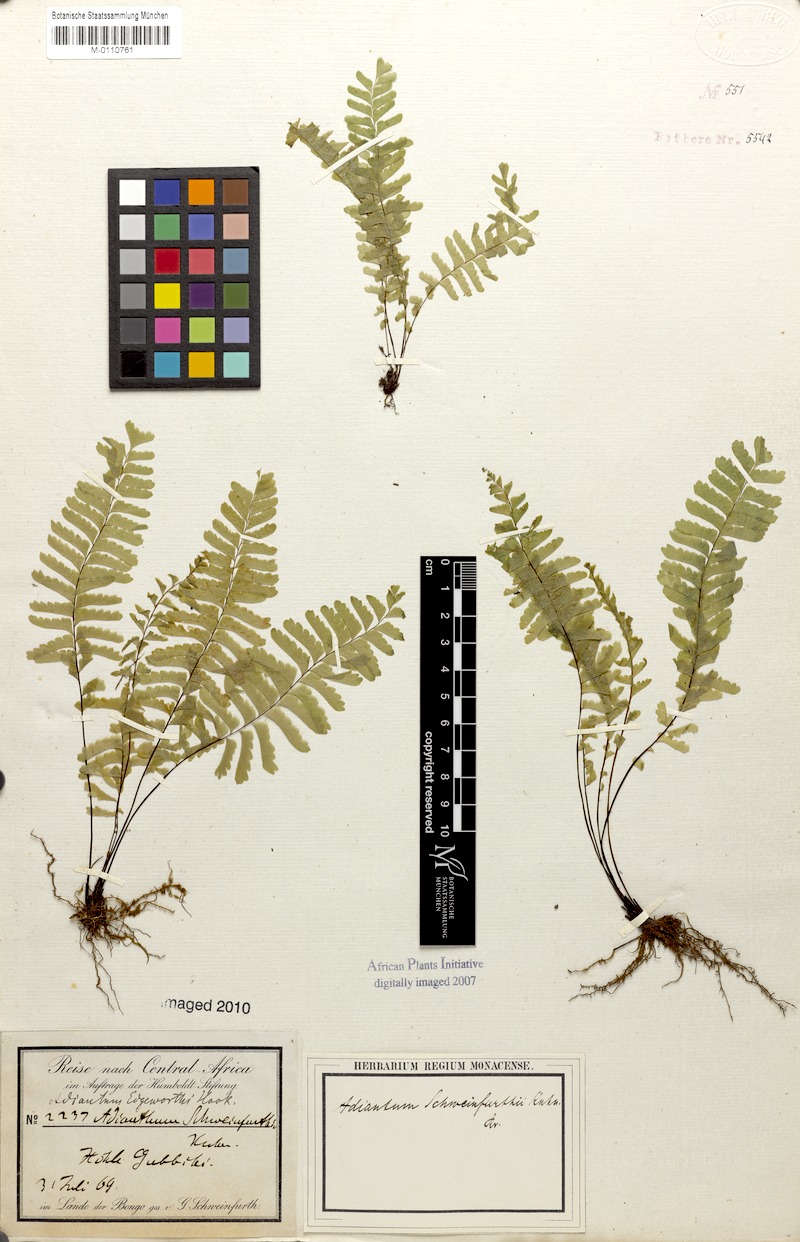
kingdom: Plantae
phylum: Tracheophyta
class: Polypodiopsida
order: Polypodiales
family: Pteridaceae
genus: Adiantum
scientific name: Adiantum schweinfurthii
